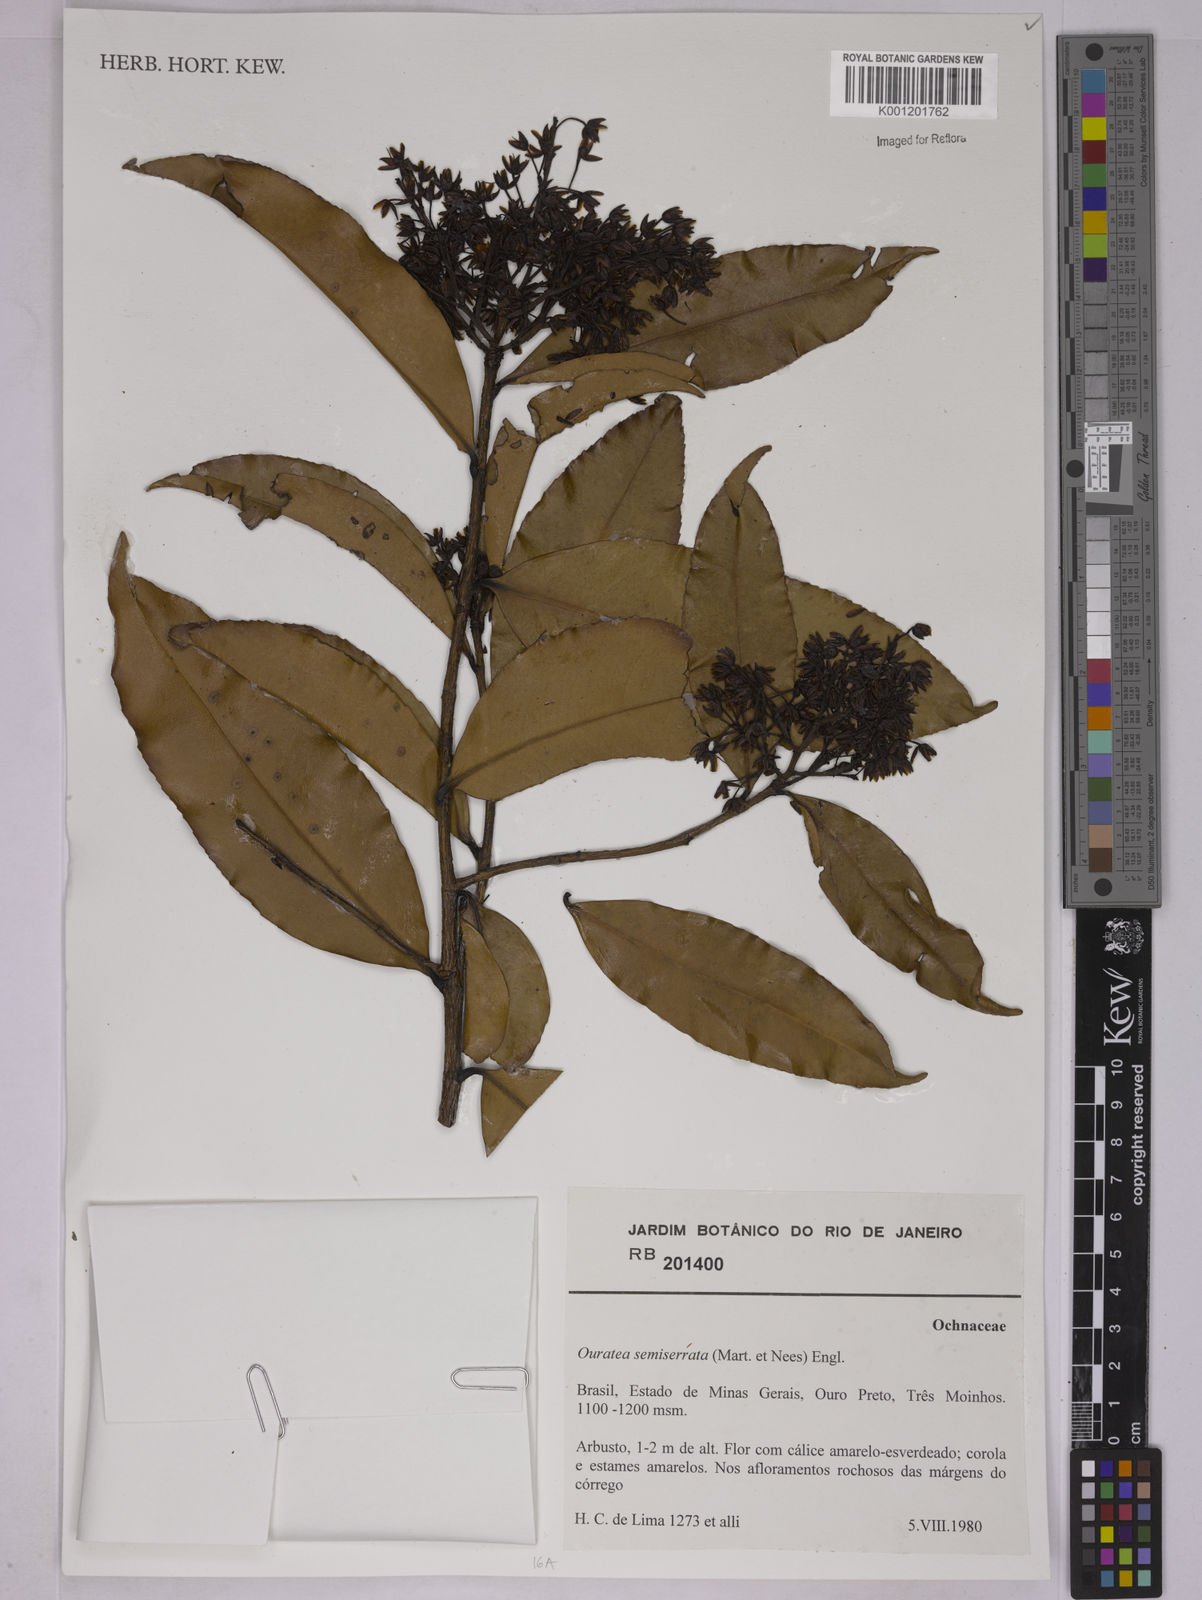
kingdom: Plantae
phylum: Tracheophyta
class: Magnoliopsida
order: Malpighiales
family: Ochnaceae
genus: Ouratea
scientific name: Ouratea semiserrata
